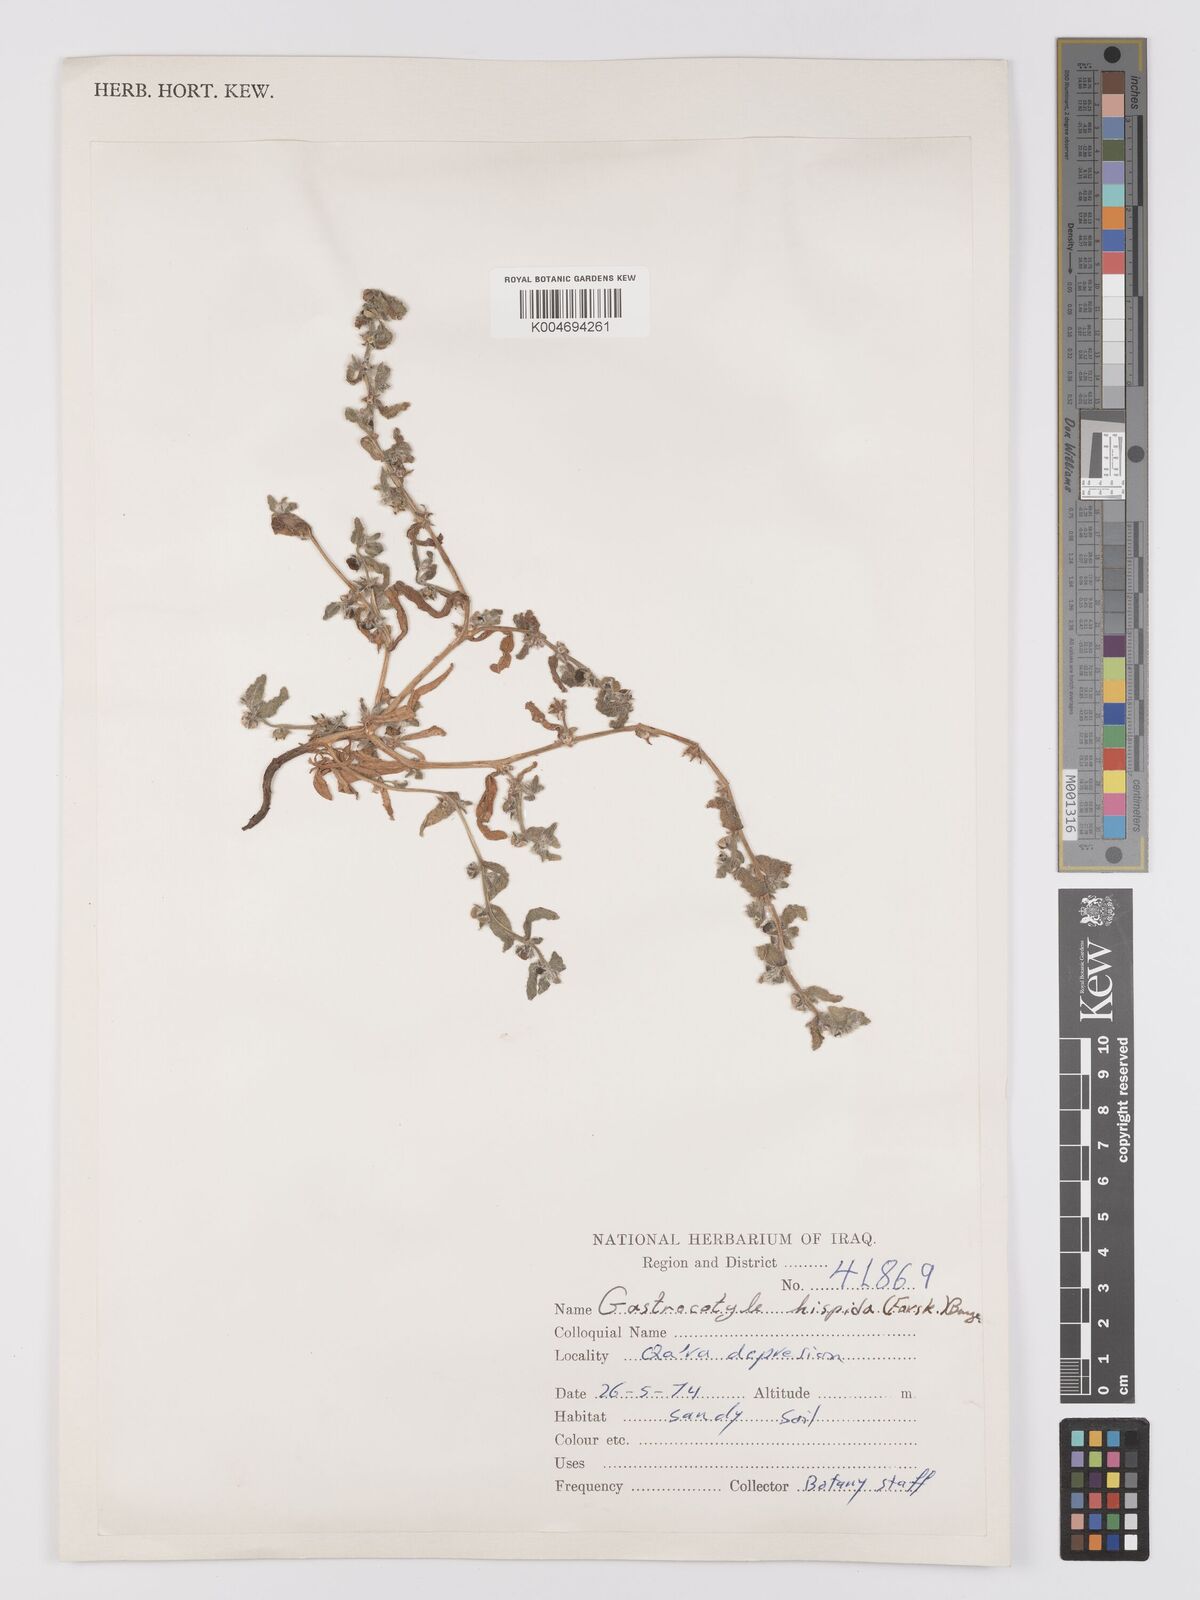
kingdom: Plantae
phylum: Tracheophyta
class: Magnoliopsida
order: Boraginales
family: Boraginaceae
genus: Gastrocotyle
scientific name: Gastrocotyle hispida
